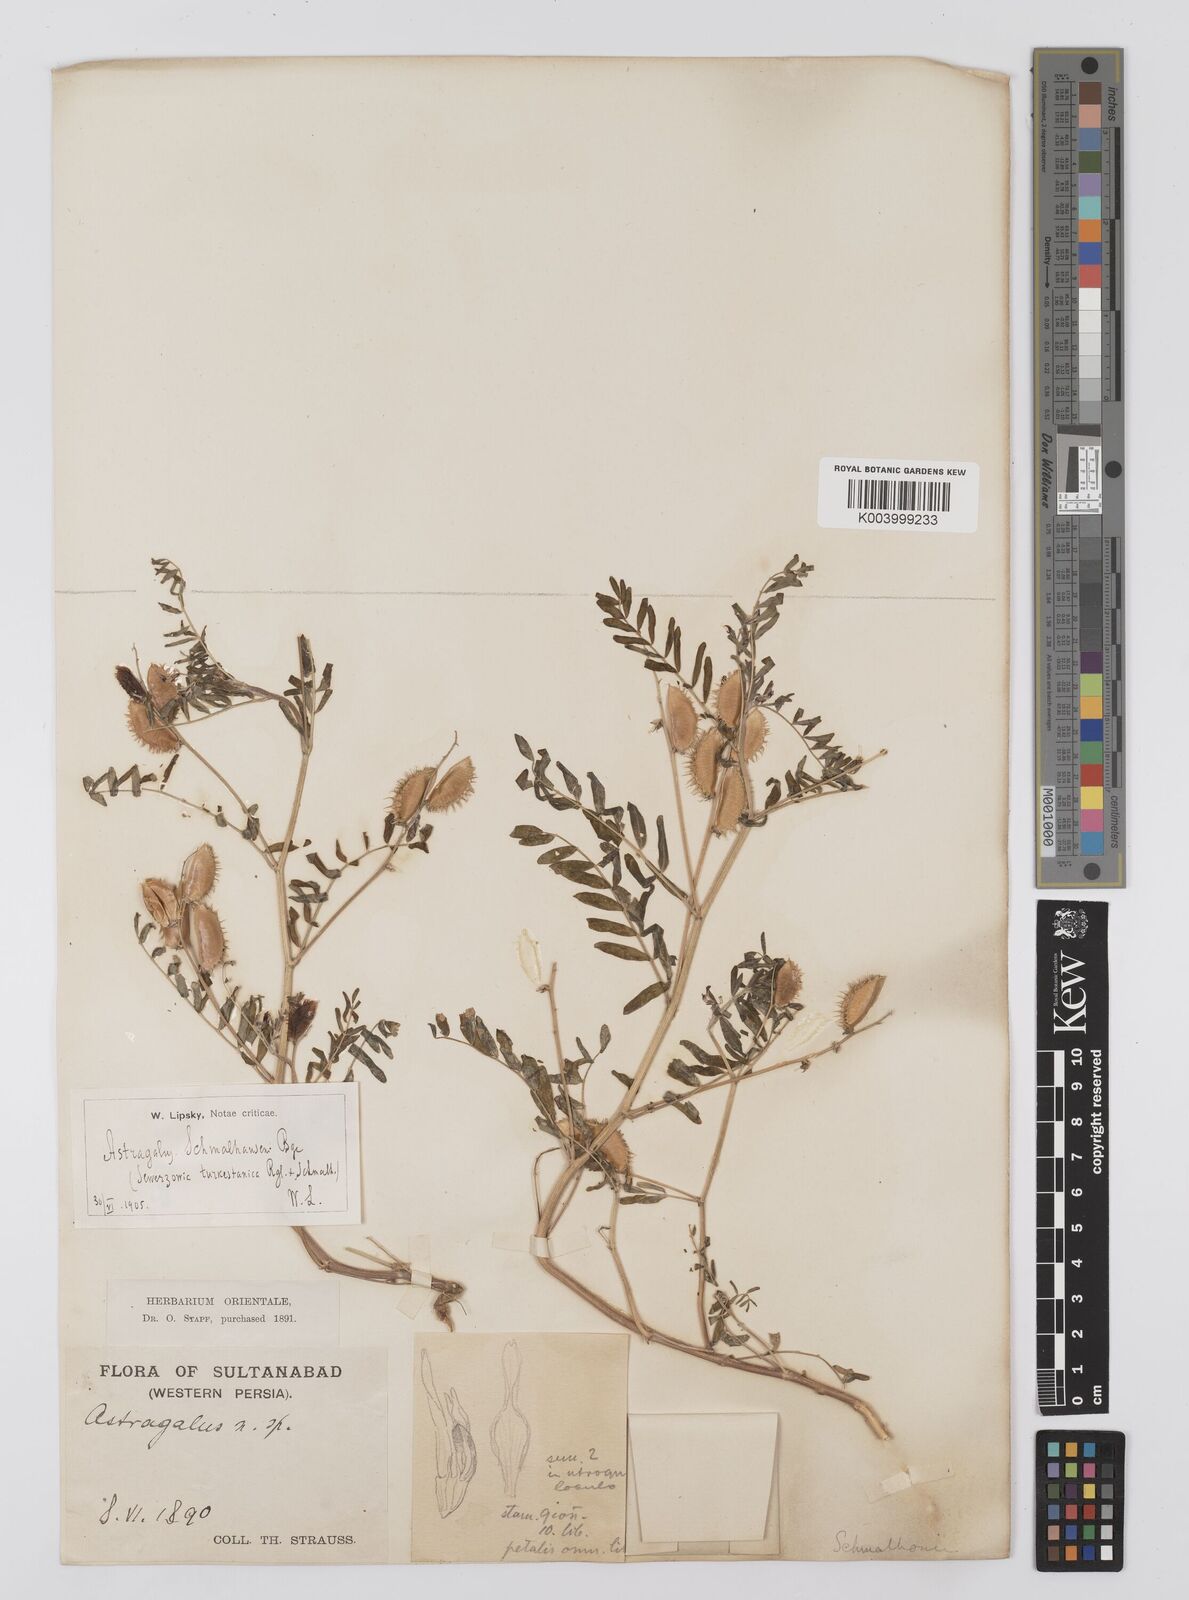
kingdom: Plantae
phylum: Tracheophyta
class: Magnoliopsida
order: Fabales
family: Fabaceae
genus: Astragalus
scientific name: Astragalus schmalhausenii
